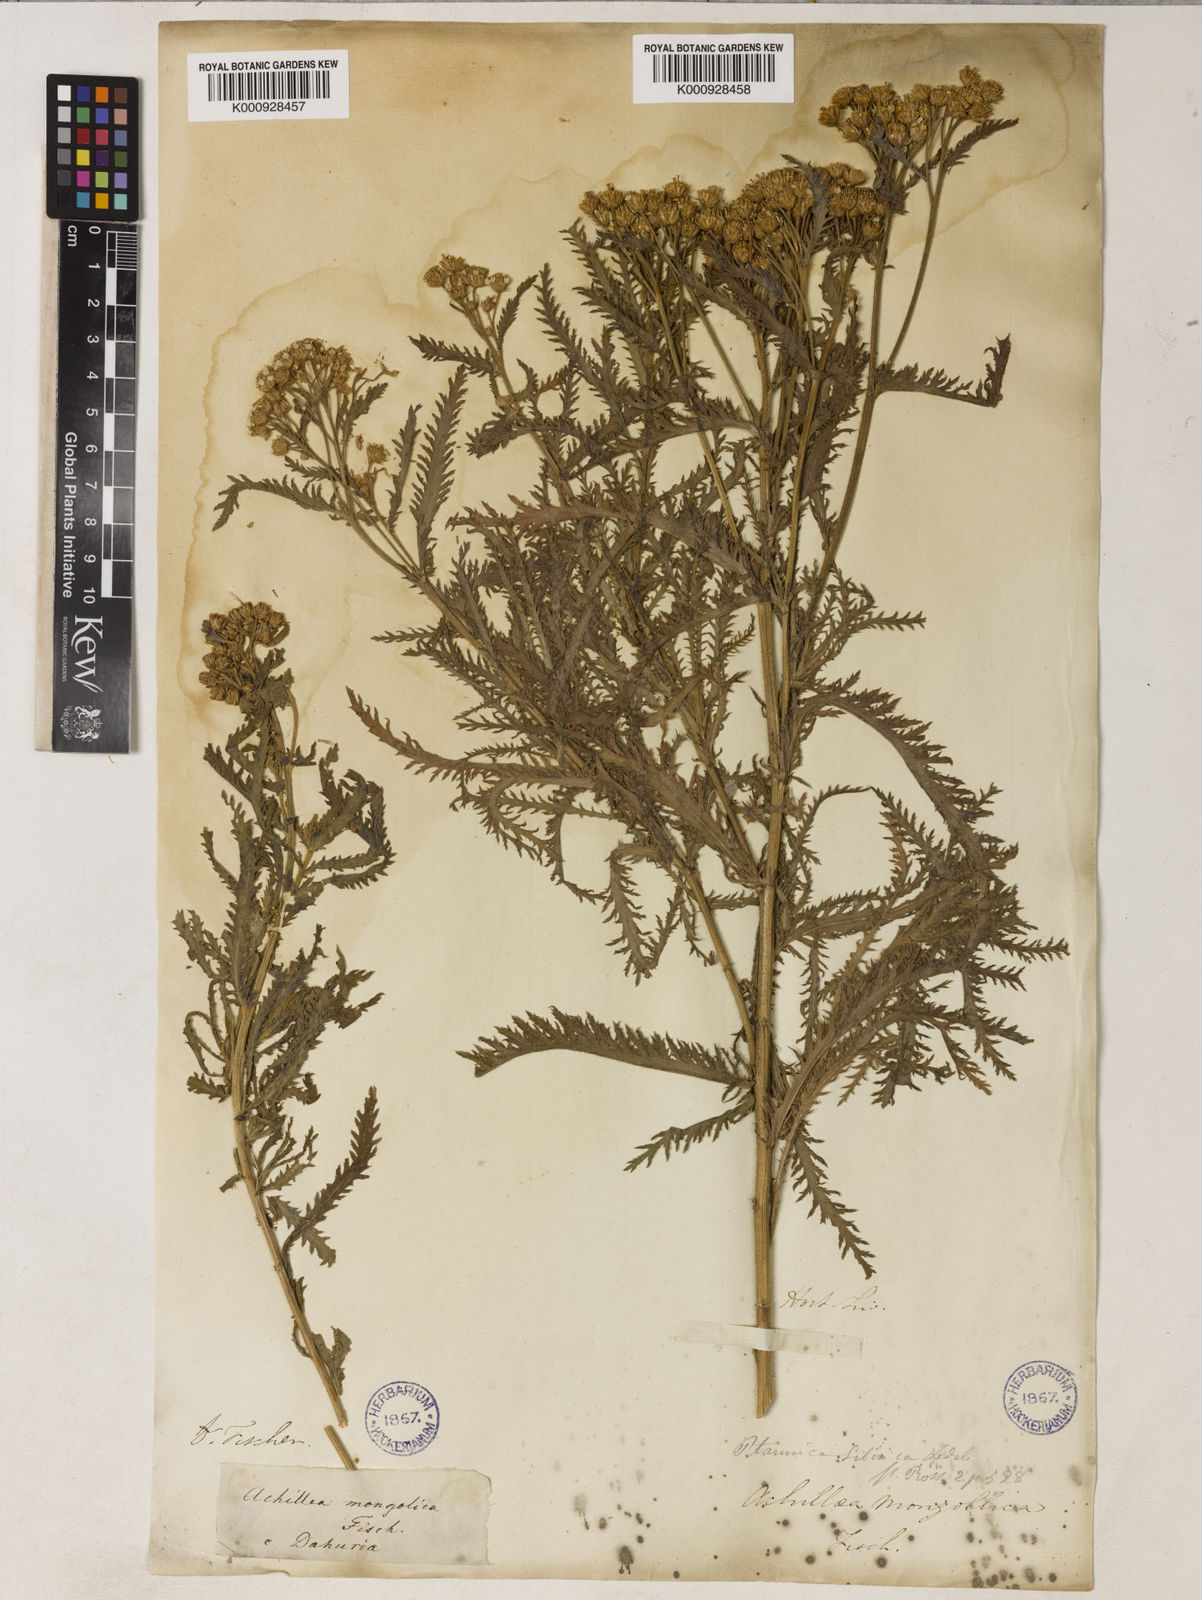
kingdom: Plantae
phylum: Tracheophyta
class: Magnoliopsida
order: Asterales
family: Asteraceae
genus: Achillea
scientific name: Achillea alpina
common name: Siberian yarrow
